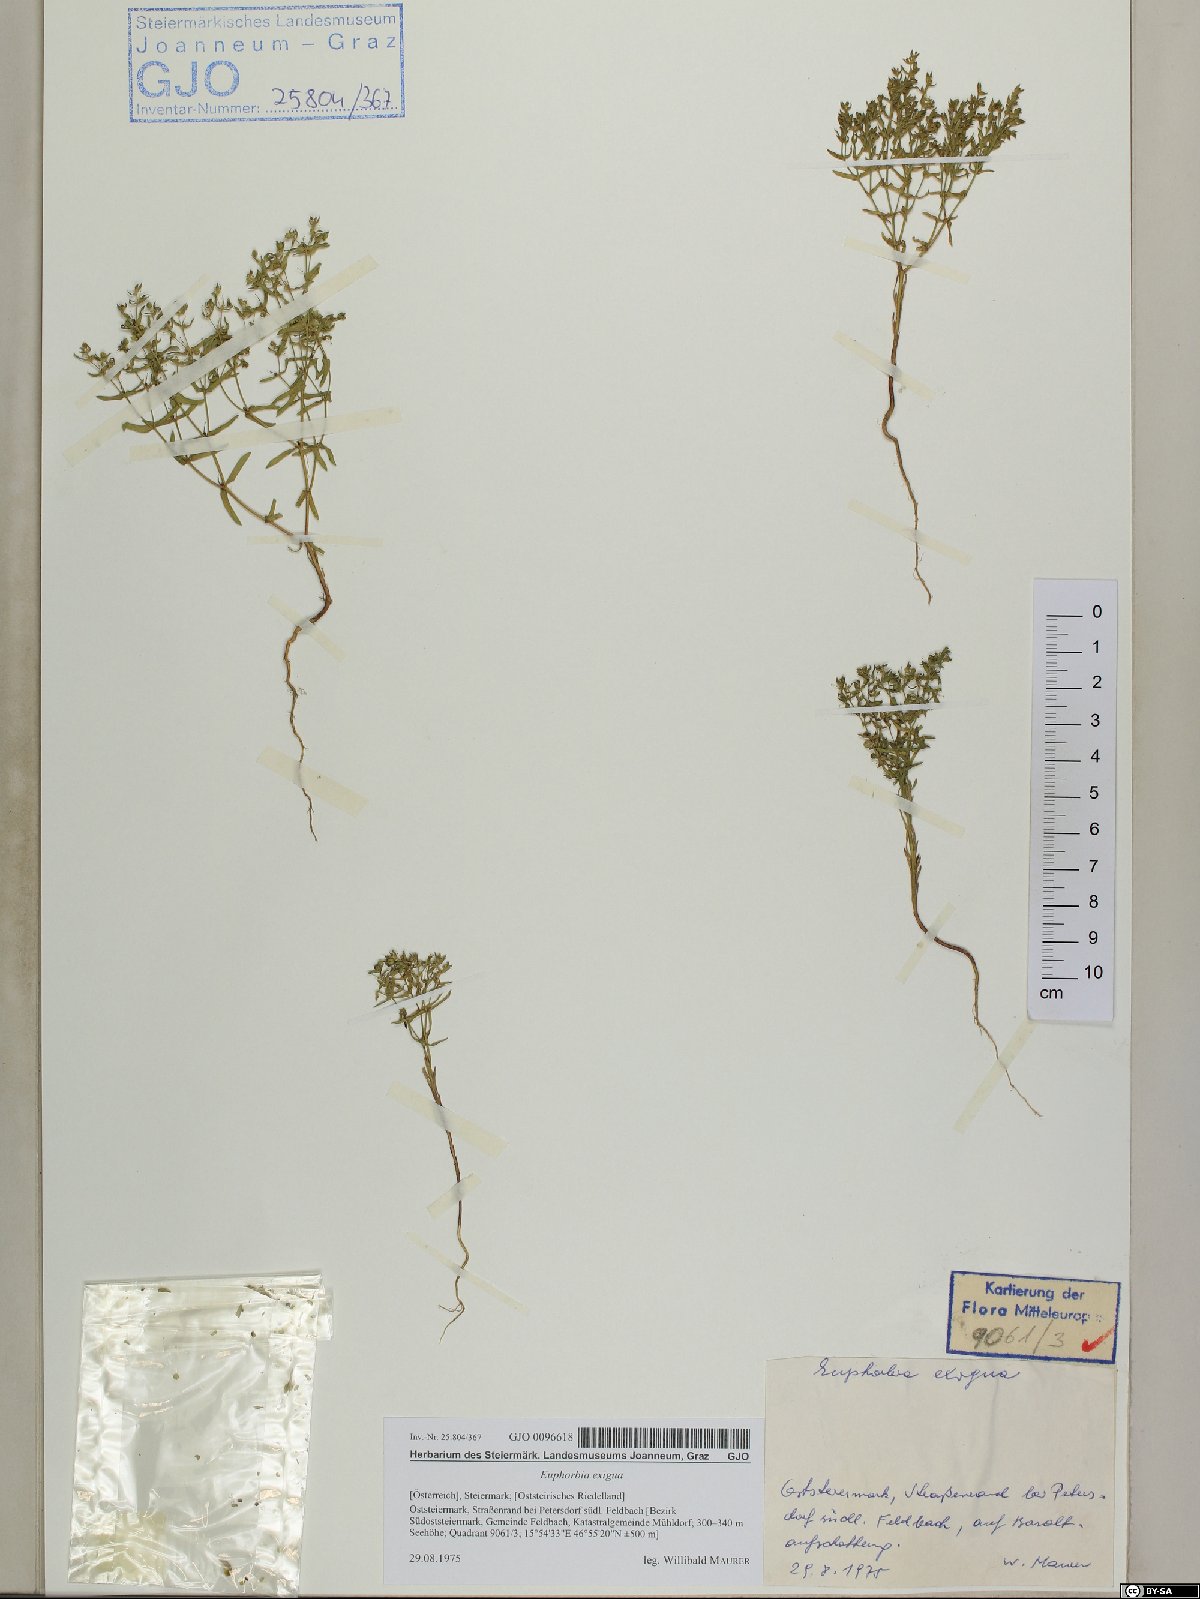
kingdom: Plantae
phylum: Tracheophyta
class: Magnoliopsida
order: Malpighiales
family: Euphorbiaceae
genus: Euphorbia
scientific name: Euphorbia exigua
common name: Dwarf spurge
